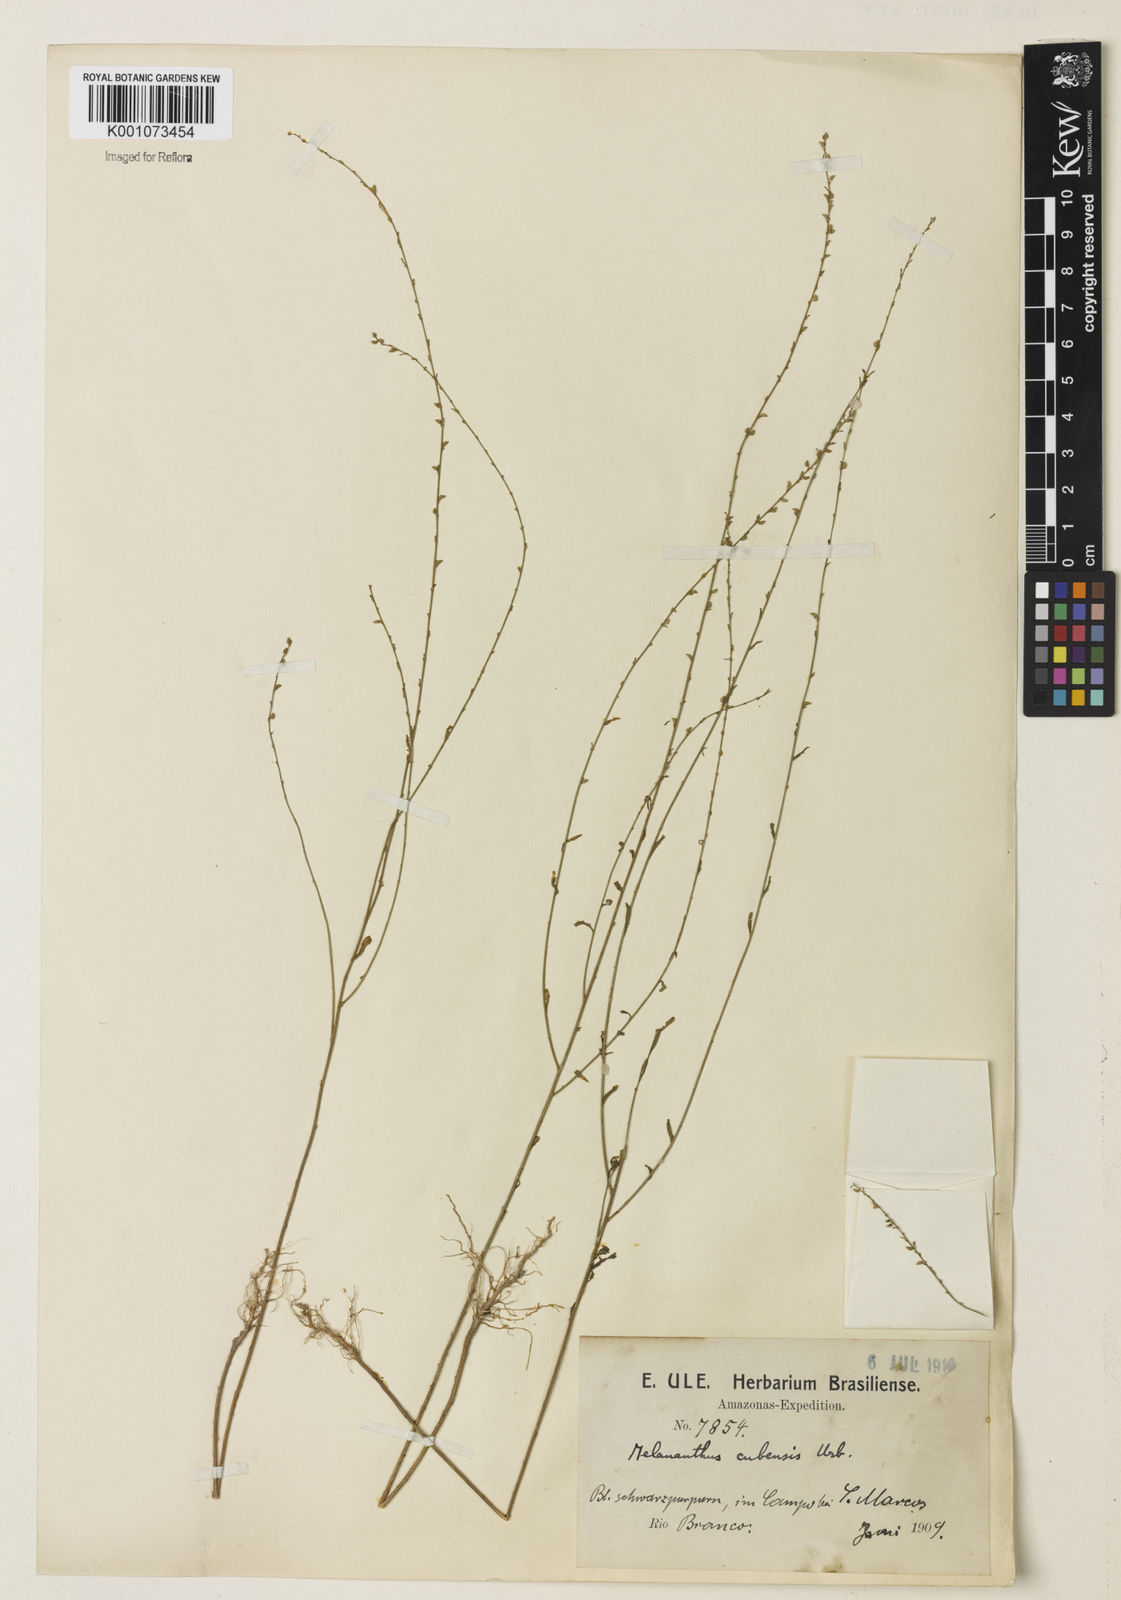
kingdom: Plantae
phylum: Tracheophyta
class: Magnoliopsida
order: Solanales
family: Solanaceae
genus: Melananthus
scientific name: Melananthus guatemalensis
